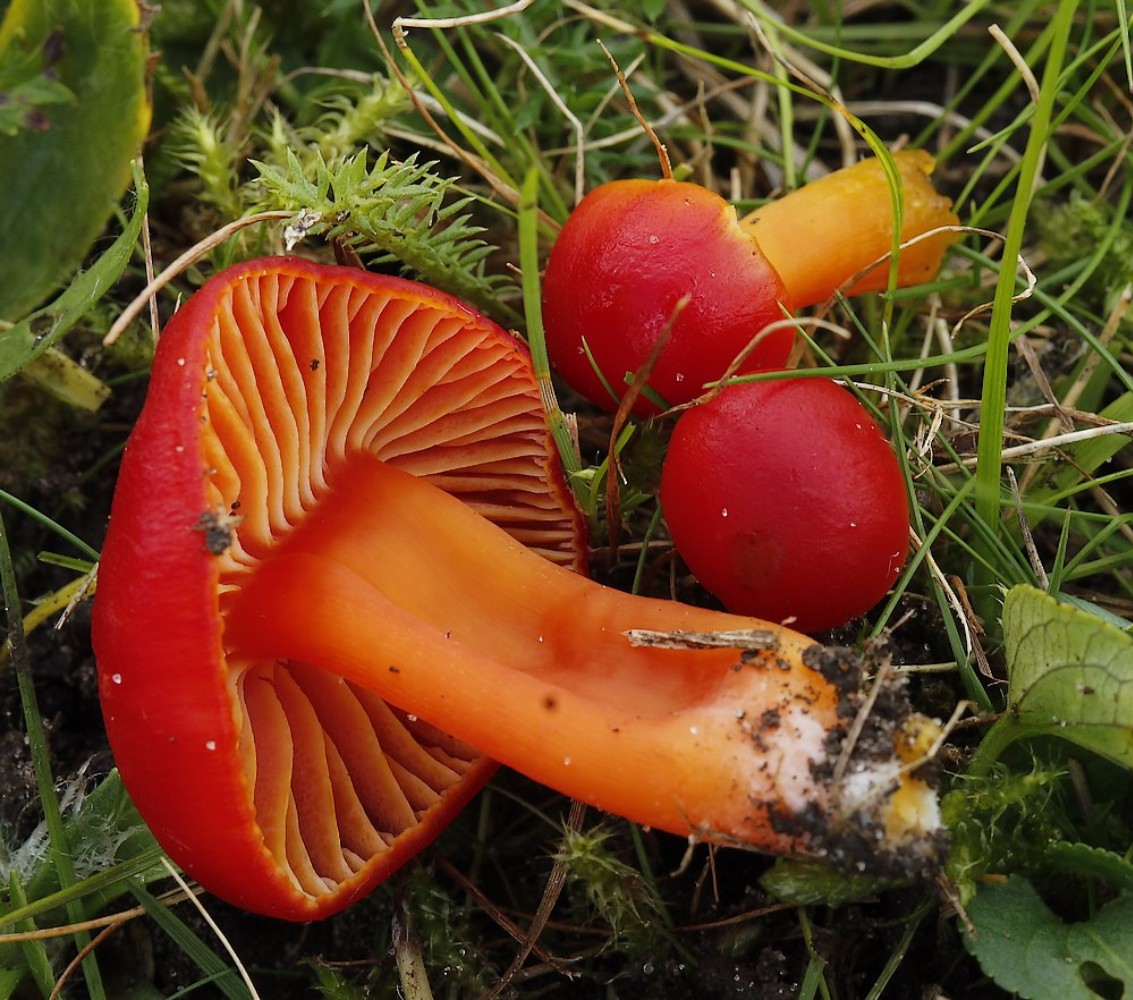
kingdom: Fungi
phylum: Basidiomycota
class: Agaricomycetes
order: Agaricales
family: Hygrophoraceae
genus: Hygrocybe
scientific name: Hygrocybe coccinea
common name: cinnober-vokshat
